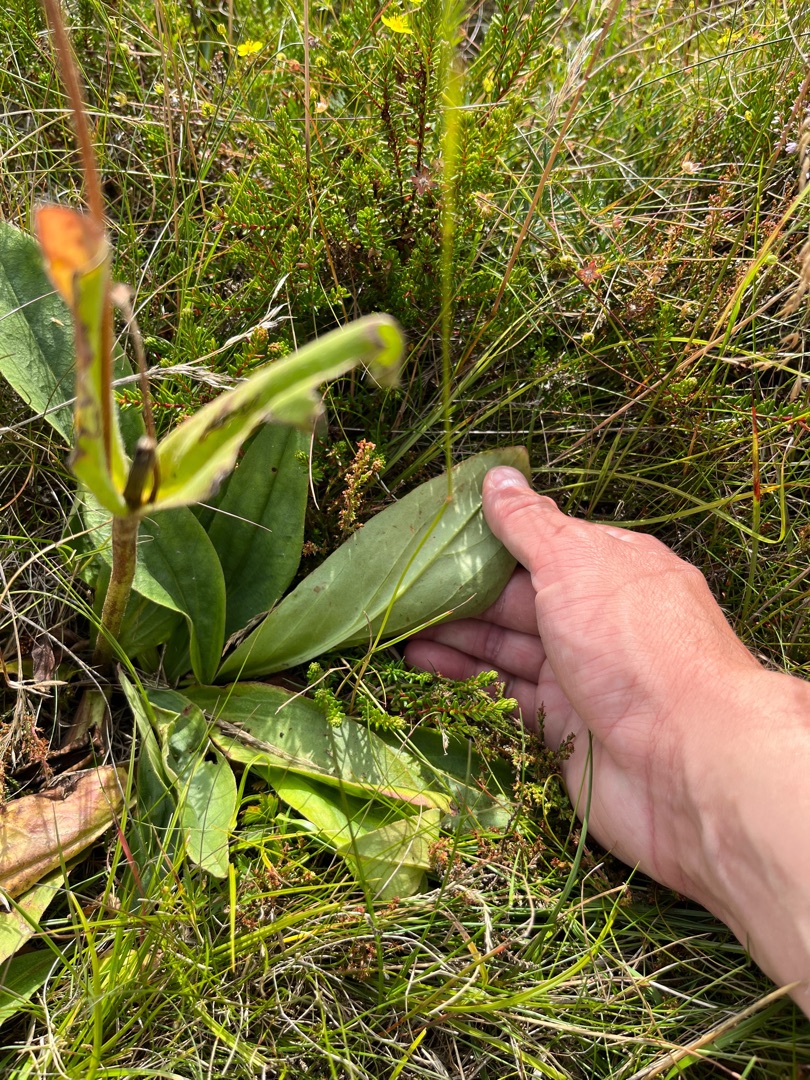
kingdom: Plantae
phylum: Tracheophyta
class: Magnoliopsida
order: Asterales
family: Asteraceae
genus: Arnica
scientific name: Arnica montana
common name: Guldblomme
